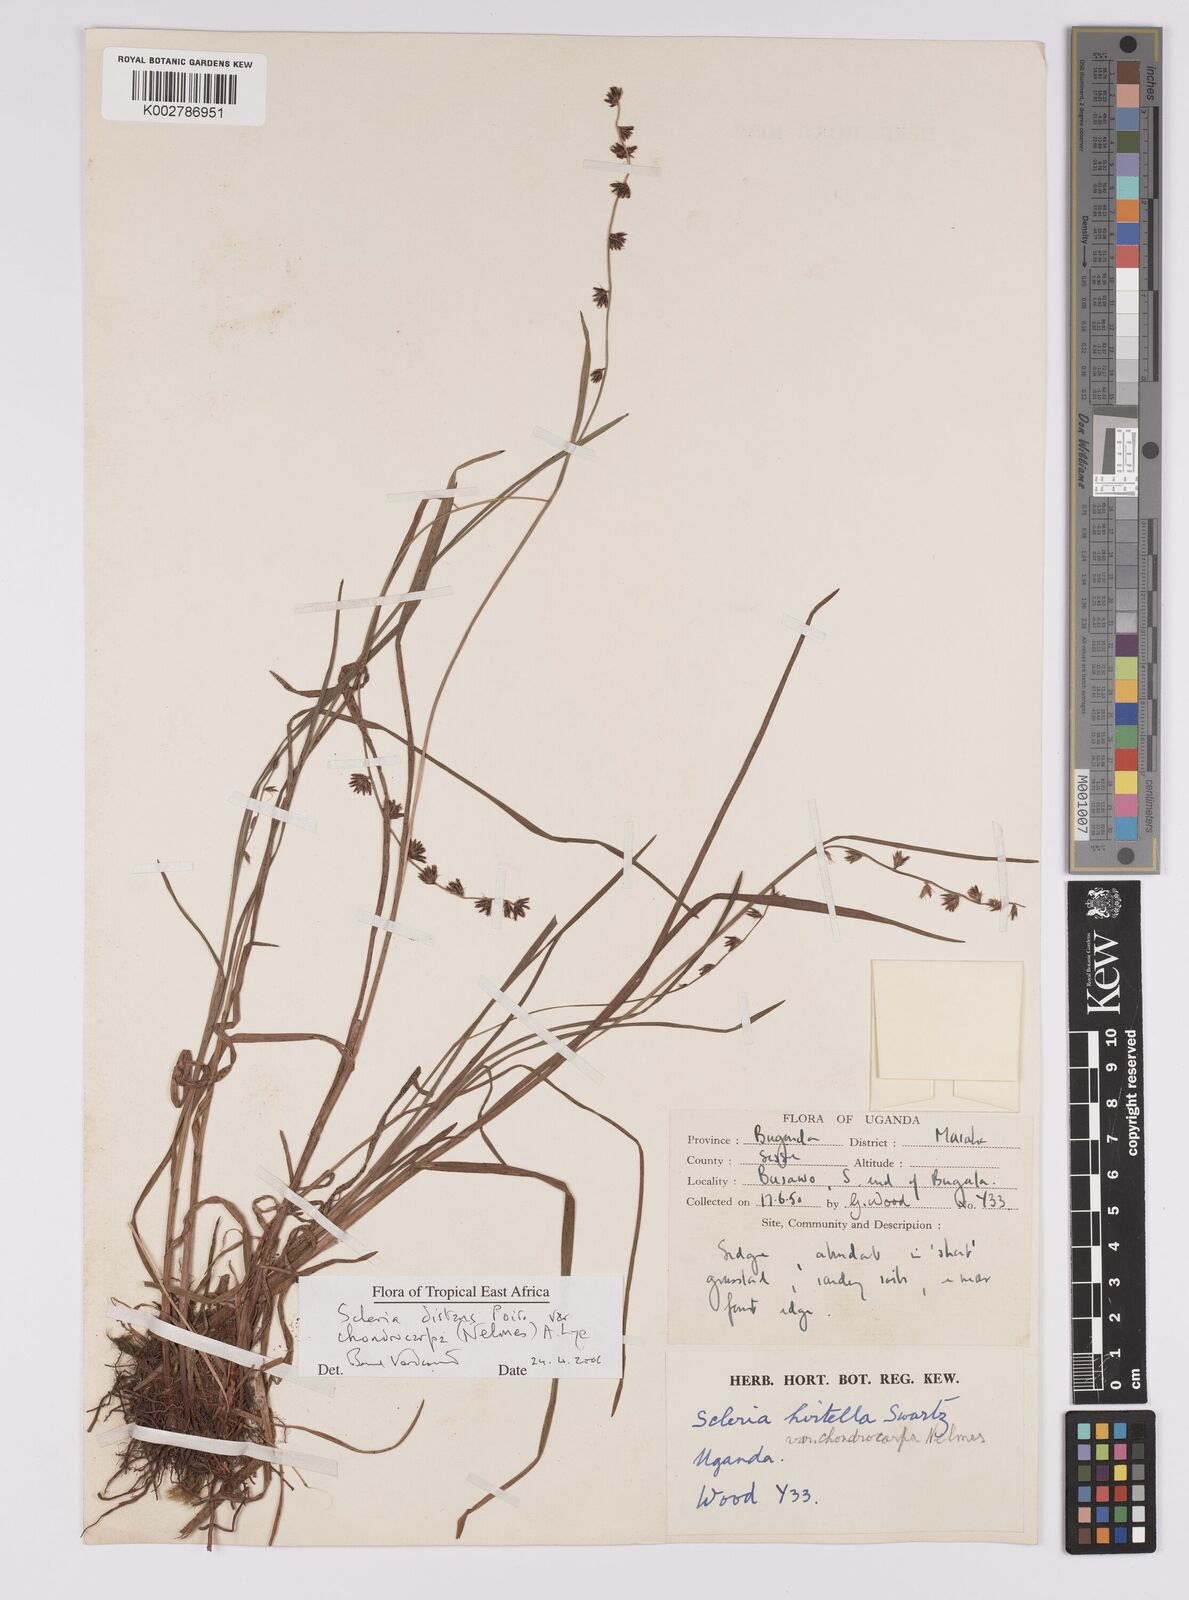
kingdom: Plantae
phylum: Tracheophyta
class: Liliopsida
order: Poales
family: Cyperaceae
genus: Scleria
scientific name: Scleria distans
